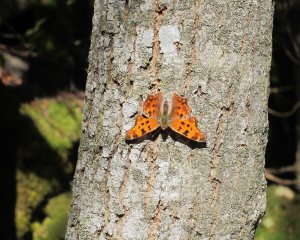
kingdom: Animalia
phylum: Arthropoda
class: Insecta
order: Lepidoptera
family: Nymphalidae
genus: Polygonia
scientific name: Polygonia comma
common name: Eastern Comma
